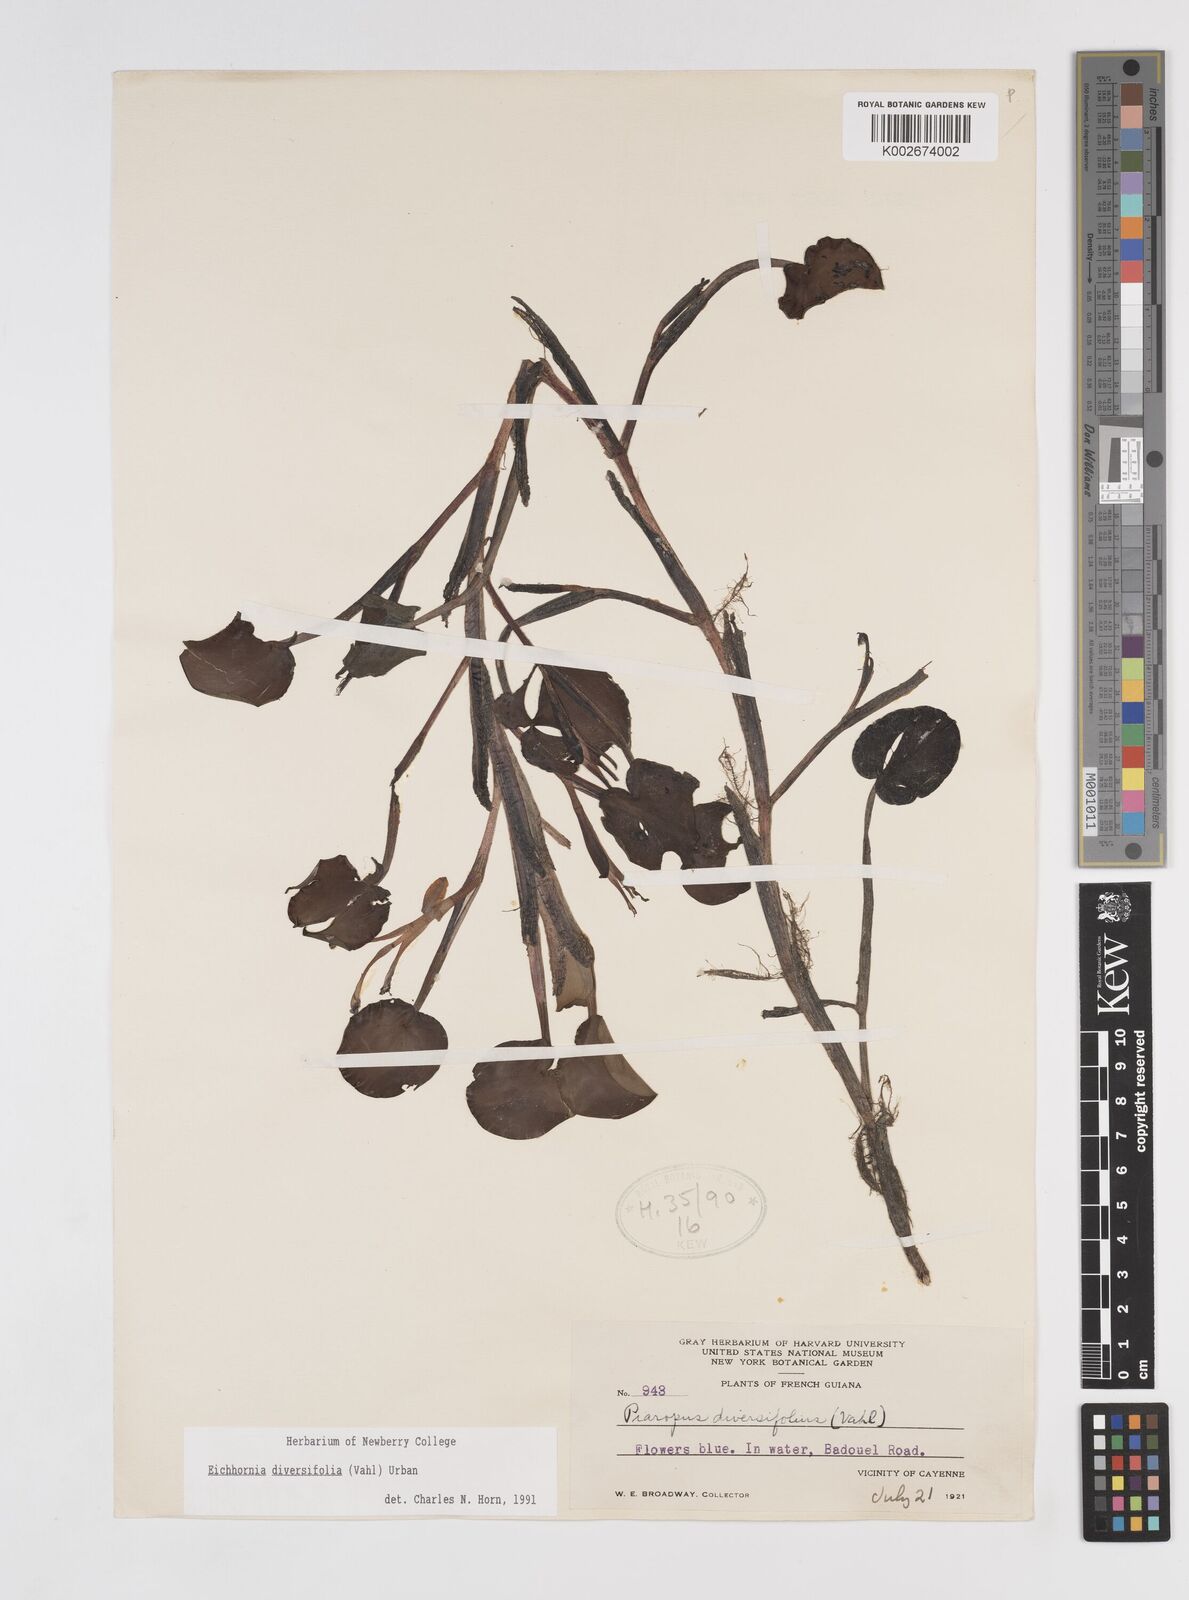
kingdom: Plantae
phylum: Tracheophyta
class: Liliopsida
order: Commelinales
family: Pontederiaceae
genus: Pontederia
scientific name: Pontederia diversifolia
